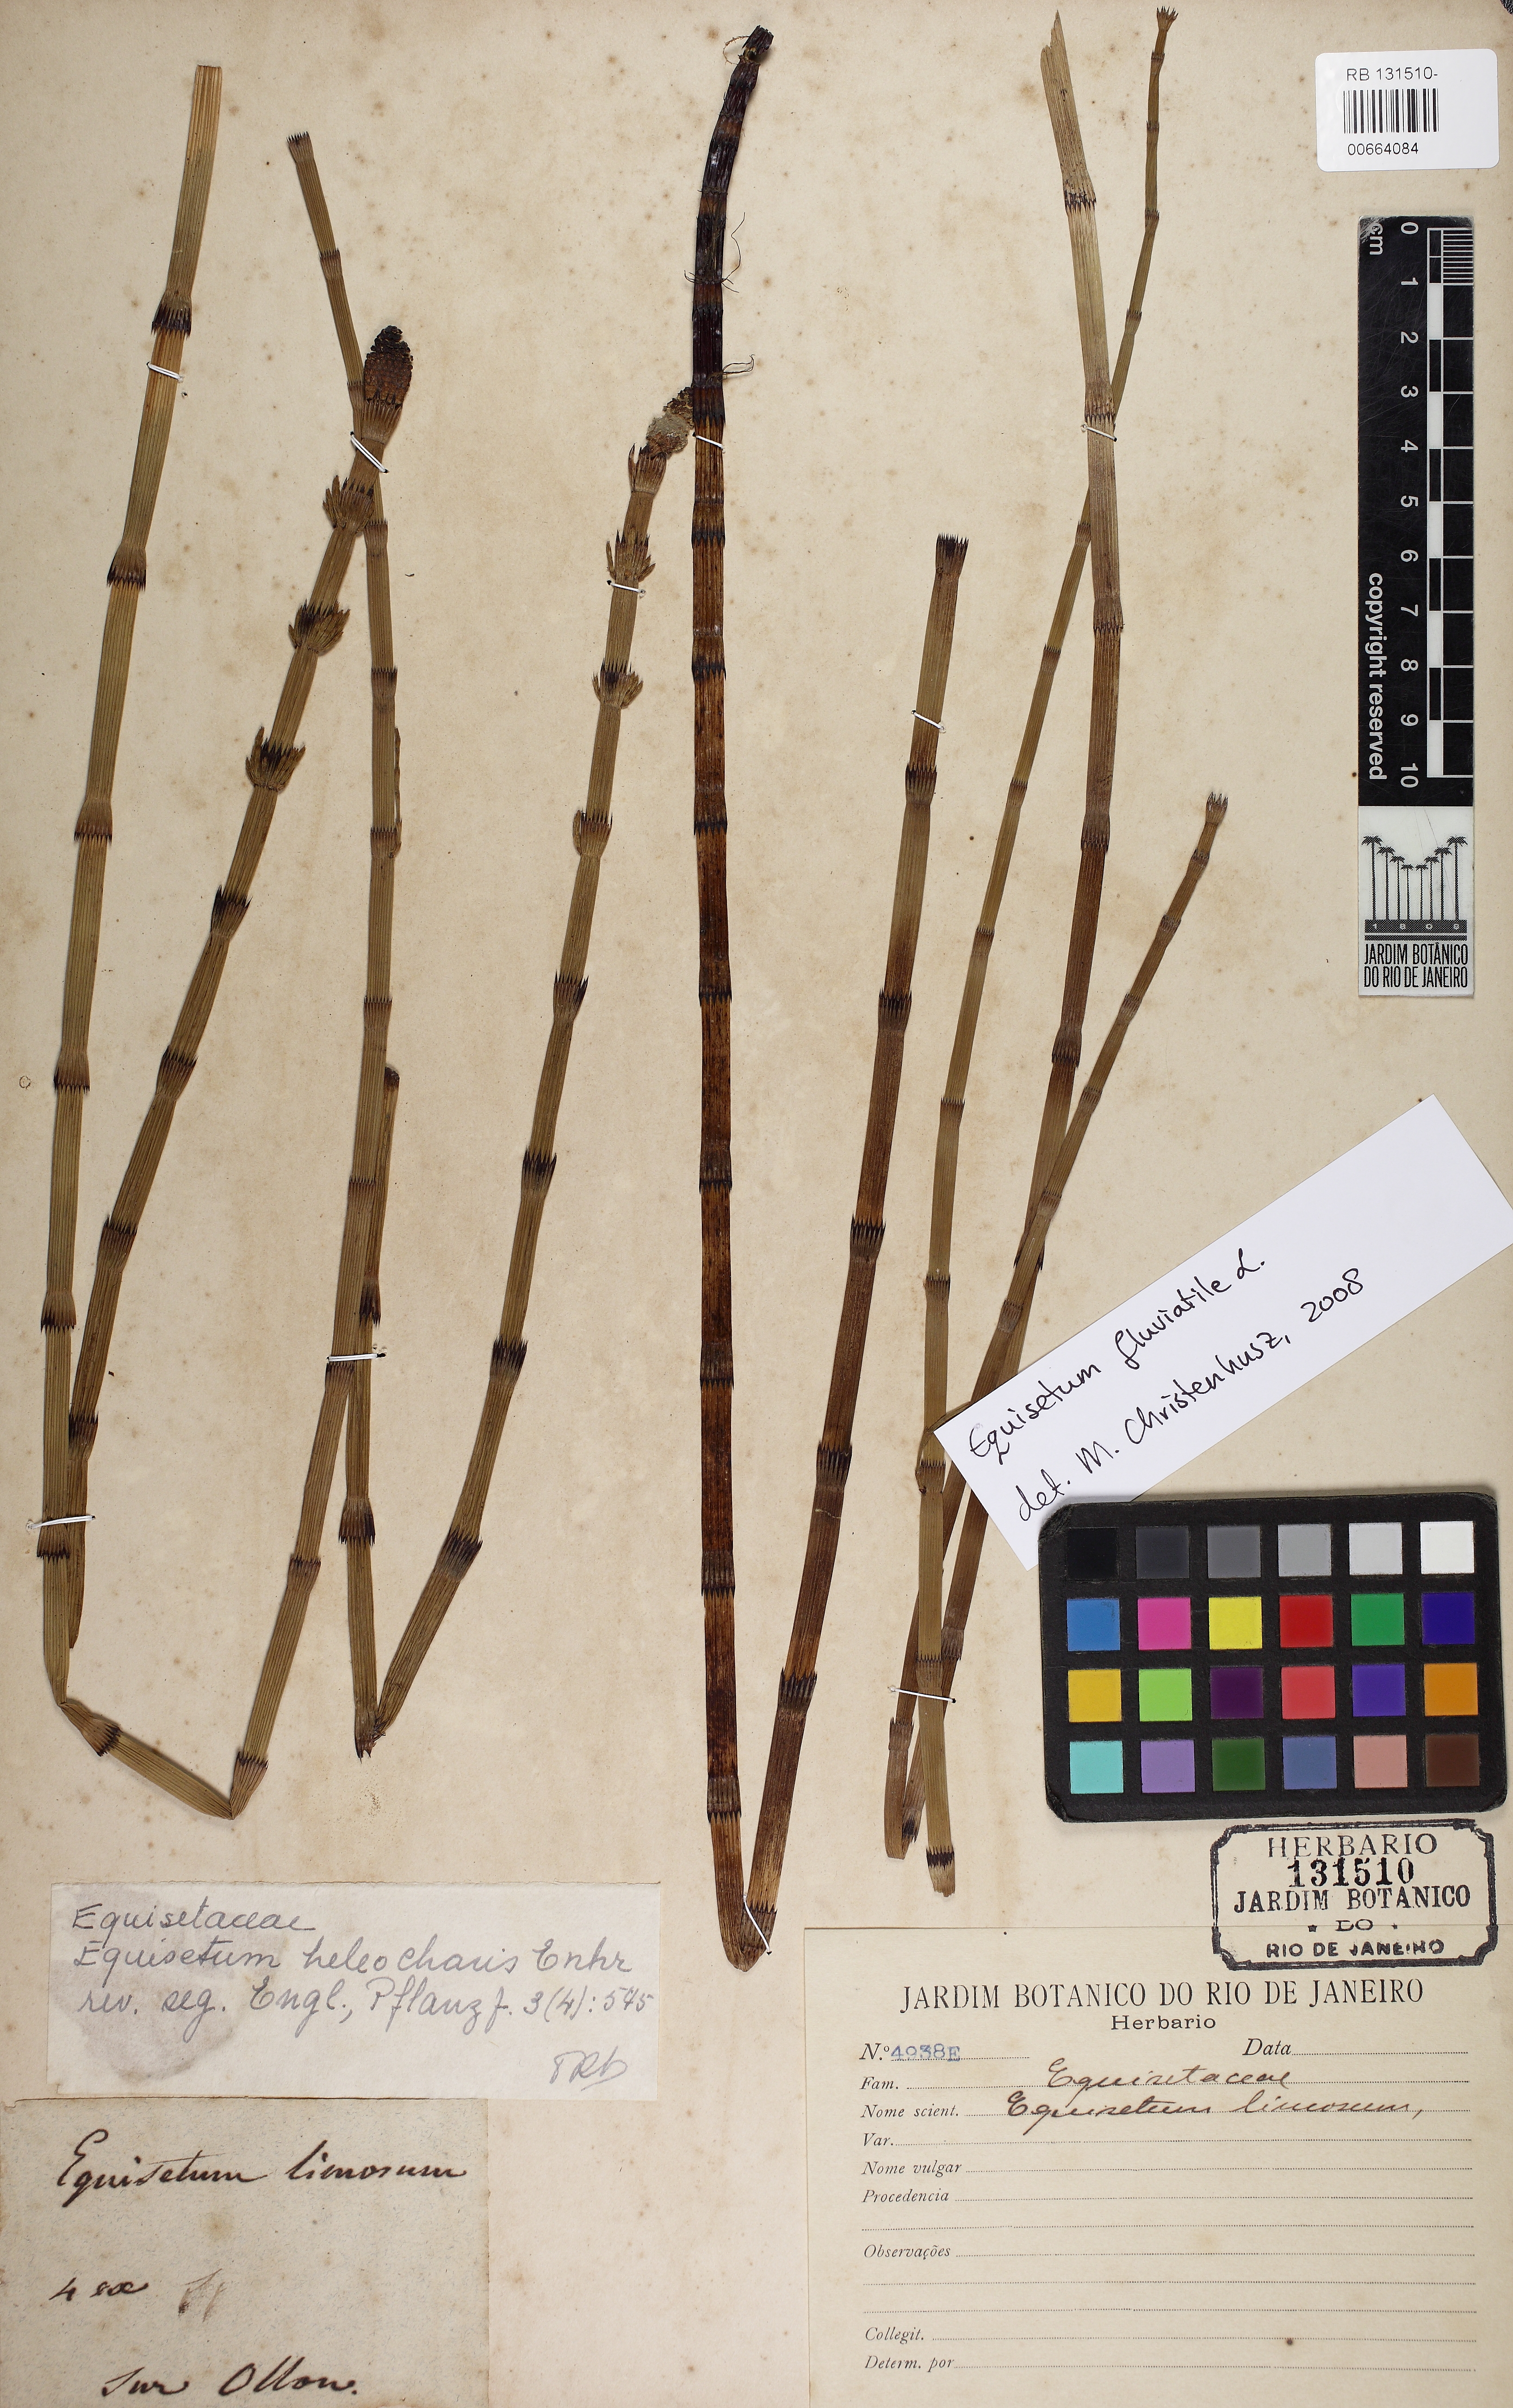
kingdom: Plantae
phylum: Tracheophyta
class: Polypodiopsida
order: Equisetales
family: Equisetaceae
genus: Equisetum
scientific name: Equisetum fluviatile
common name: Water horsetail
